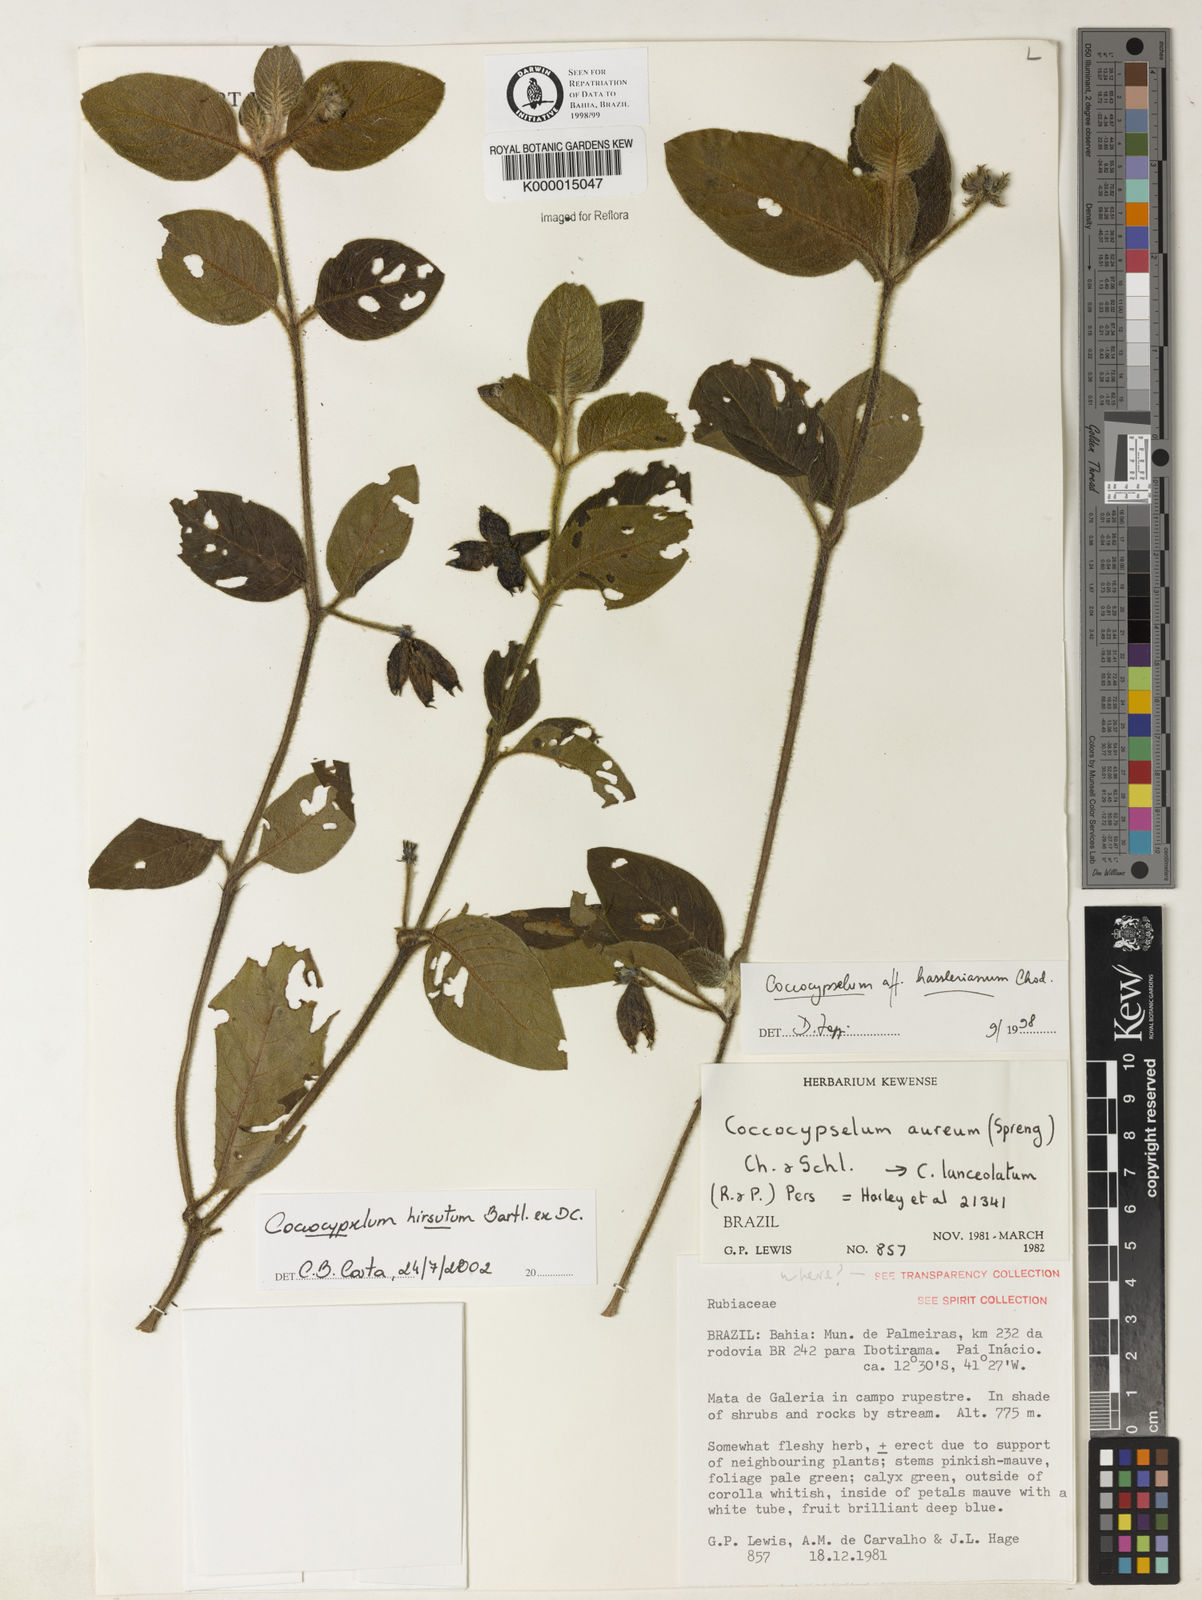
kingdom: Plantae
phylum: Tracheophyta
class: Magnoliopsida
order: Gentianales
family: Rubiaceae
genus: Coccocypselum
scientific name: Coccocypselum hirsutum
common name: Yerba de guava
